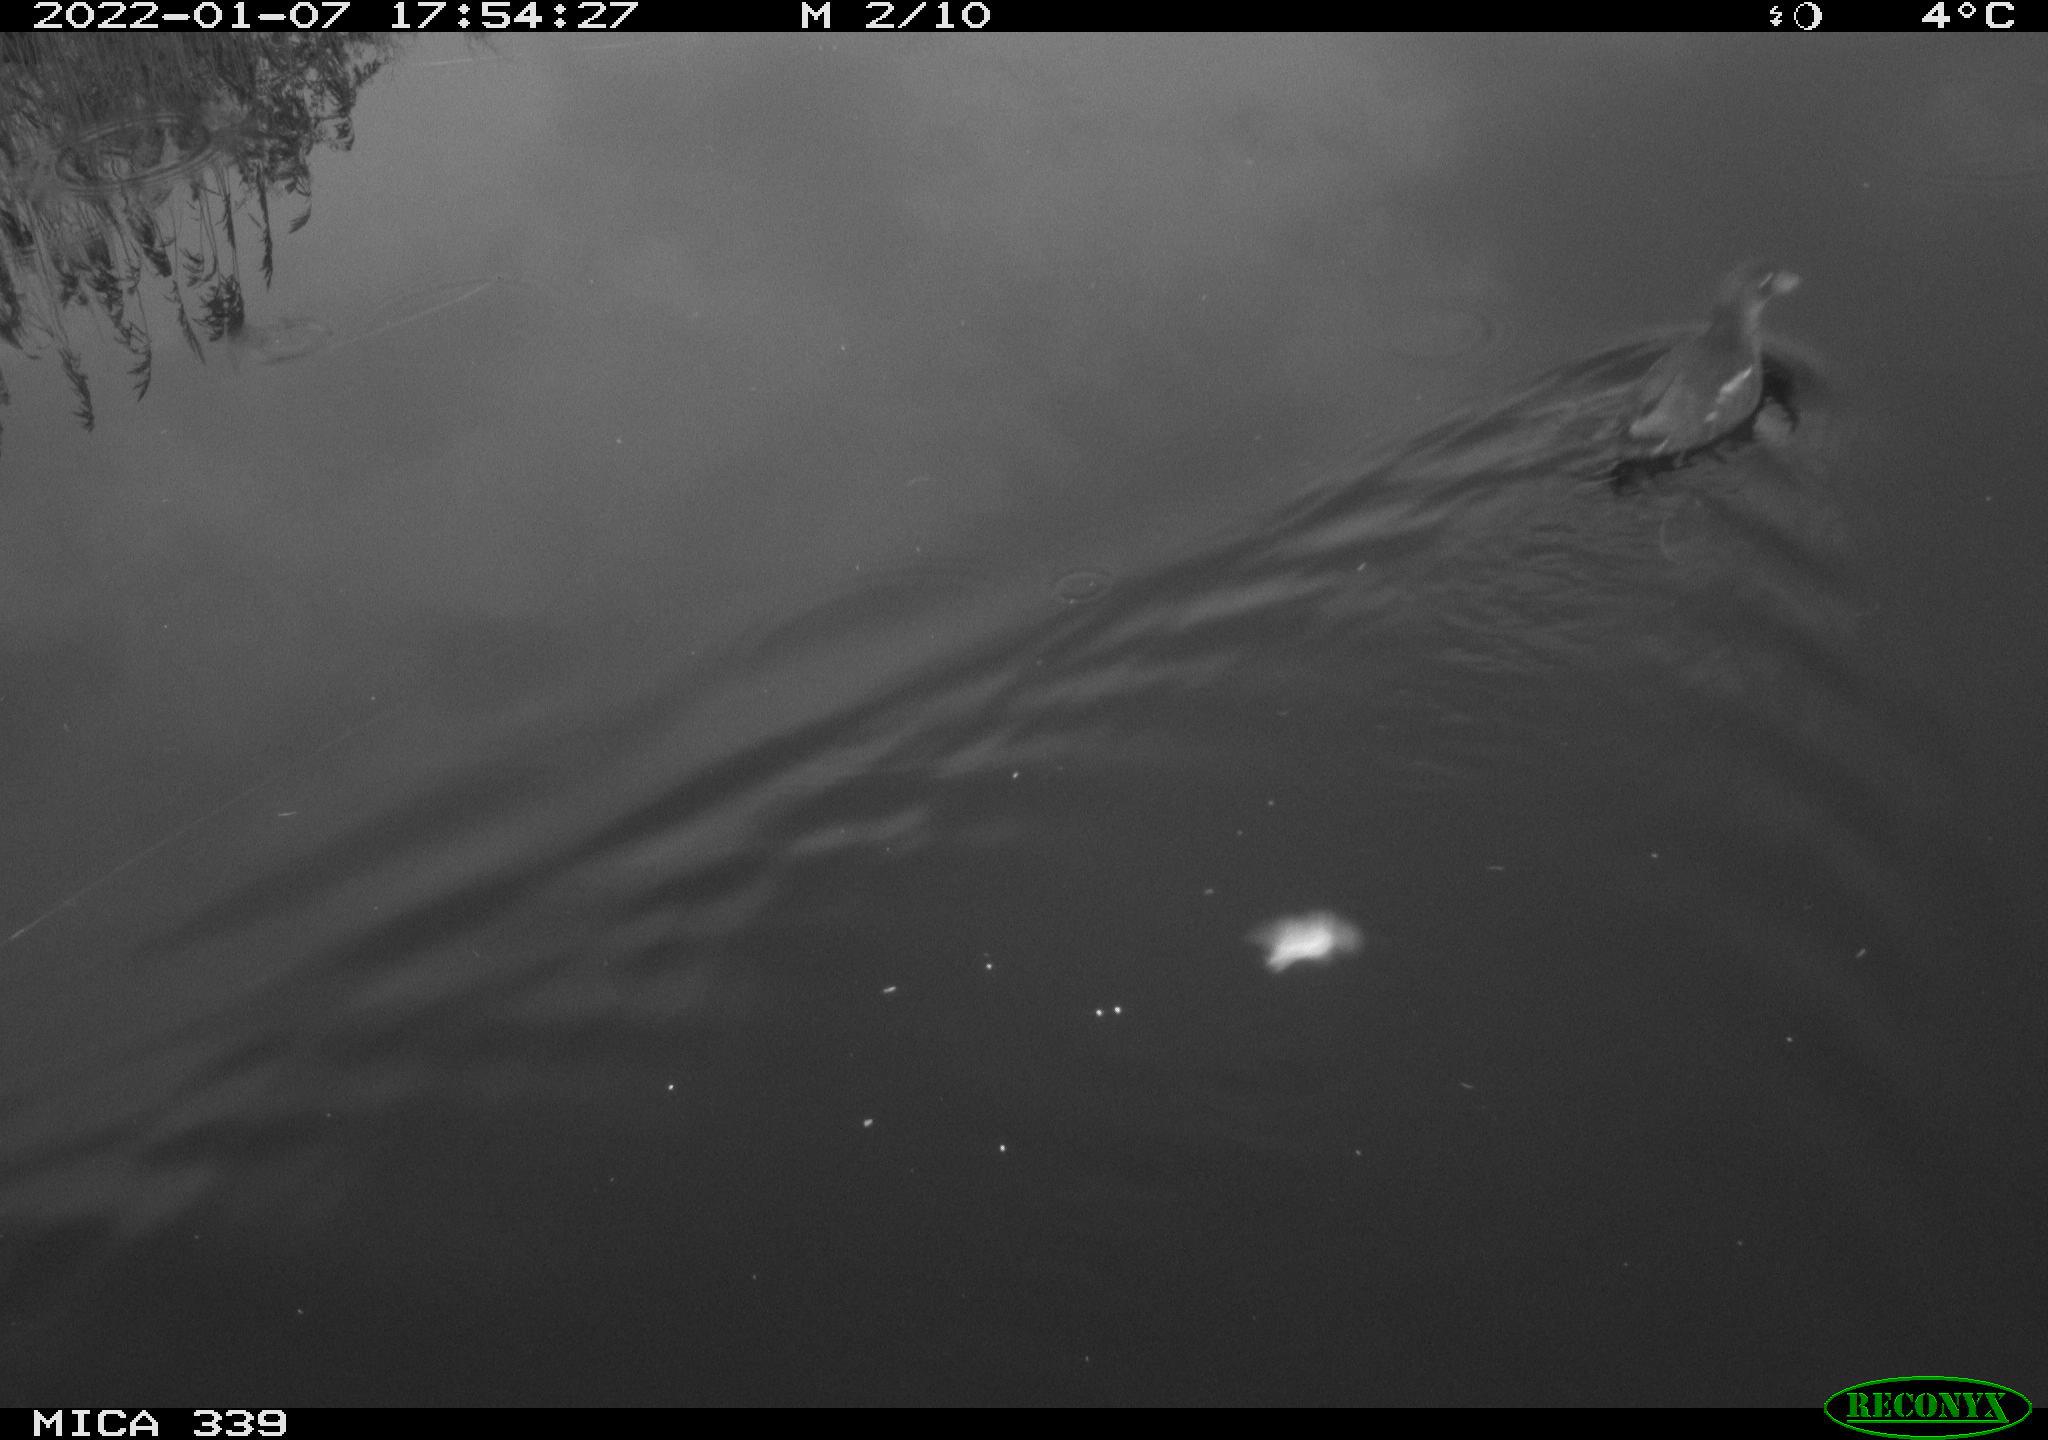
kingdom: Animalia
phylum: Chordata
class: Aves
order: Gruiformes
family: Rallidae
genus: Gallinula
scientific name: Gallinula chloropus
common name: Common moorhen
